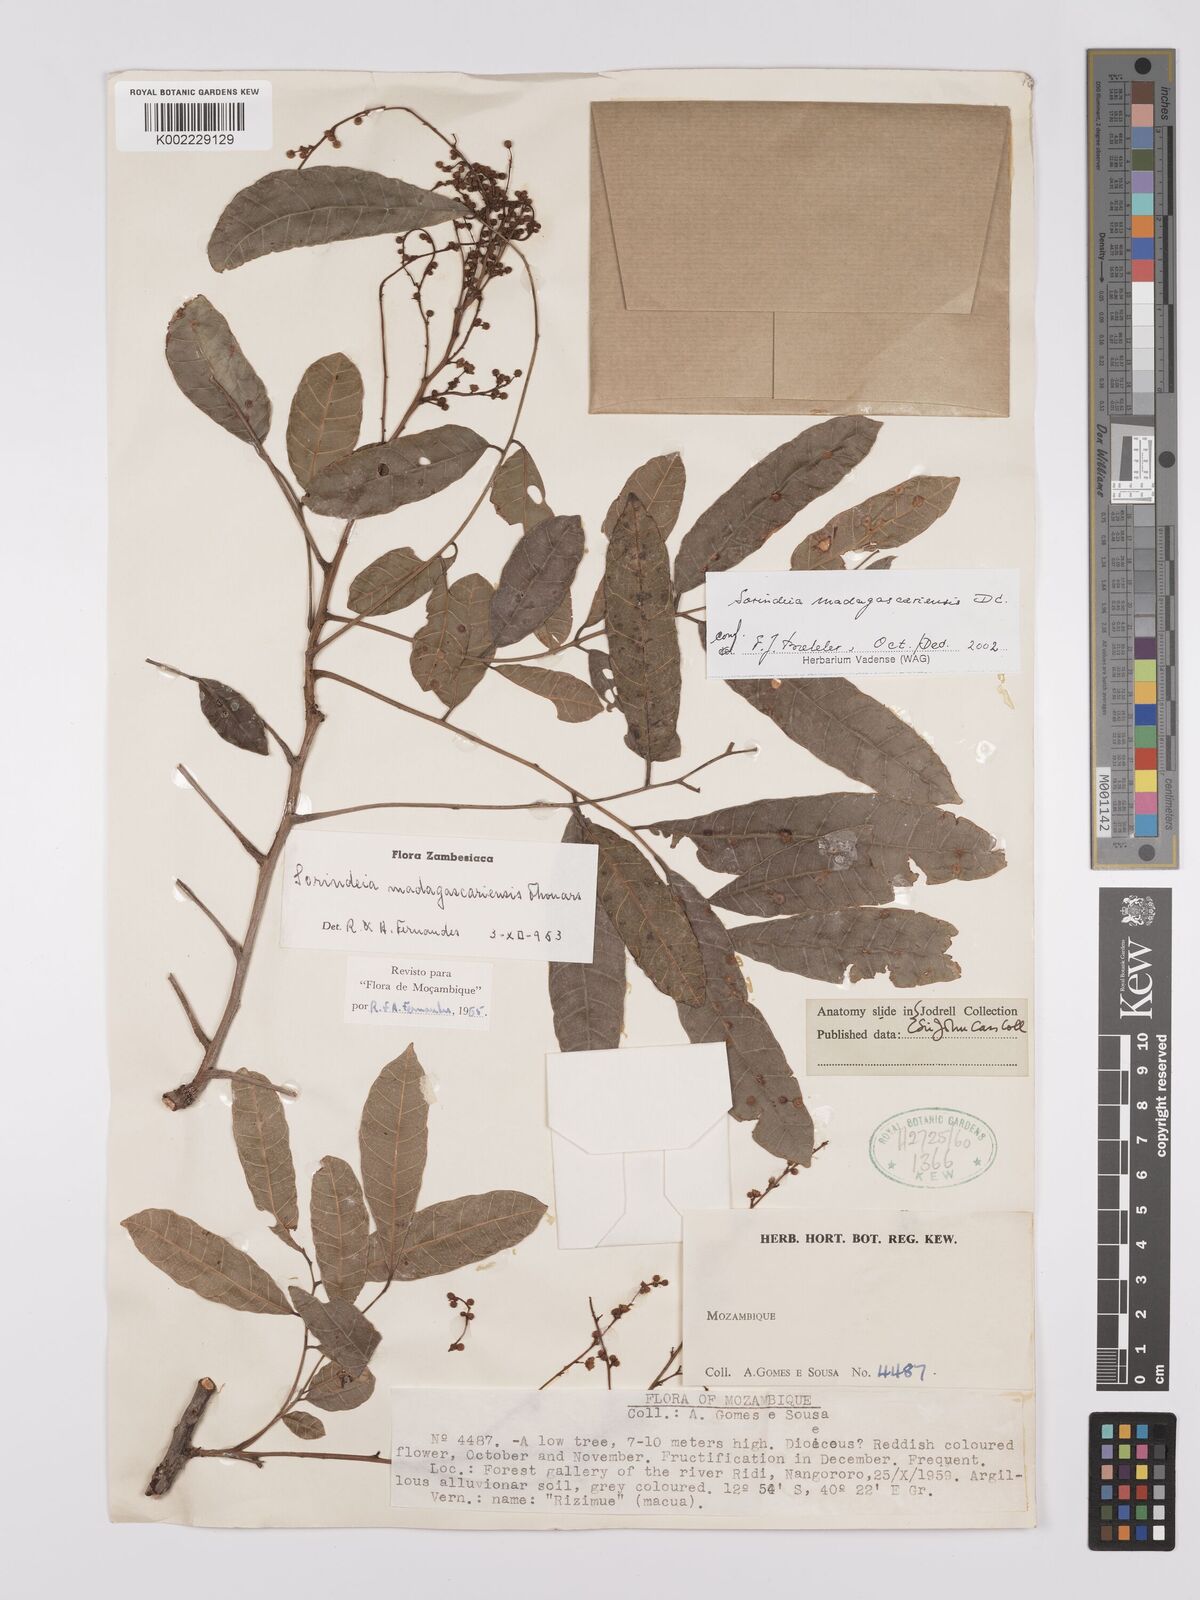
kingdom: Plantae
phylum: Tracheophyta
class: Magnoliopsida
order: Sapindales
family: Anacardiaceae
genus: Sorindeia
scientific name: Sorindeia madagascariensis
